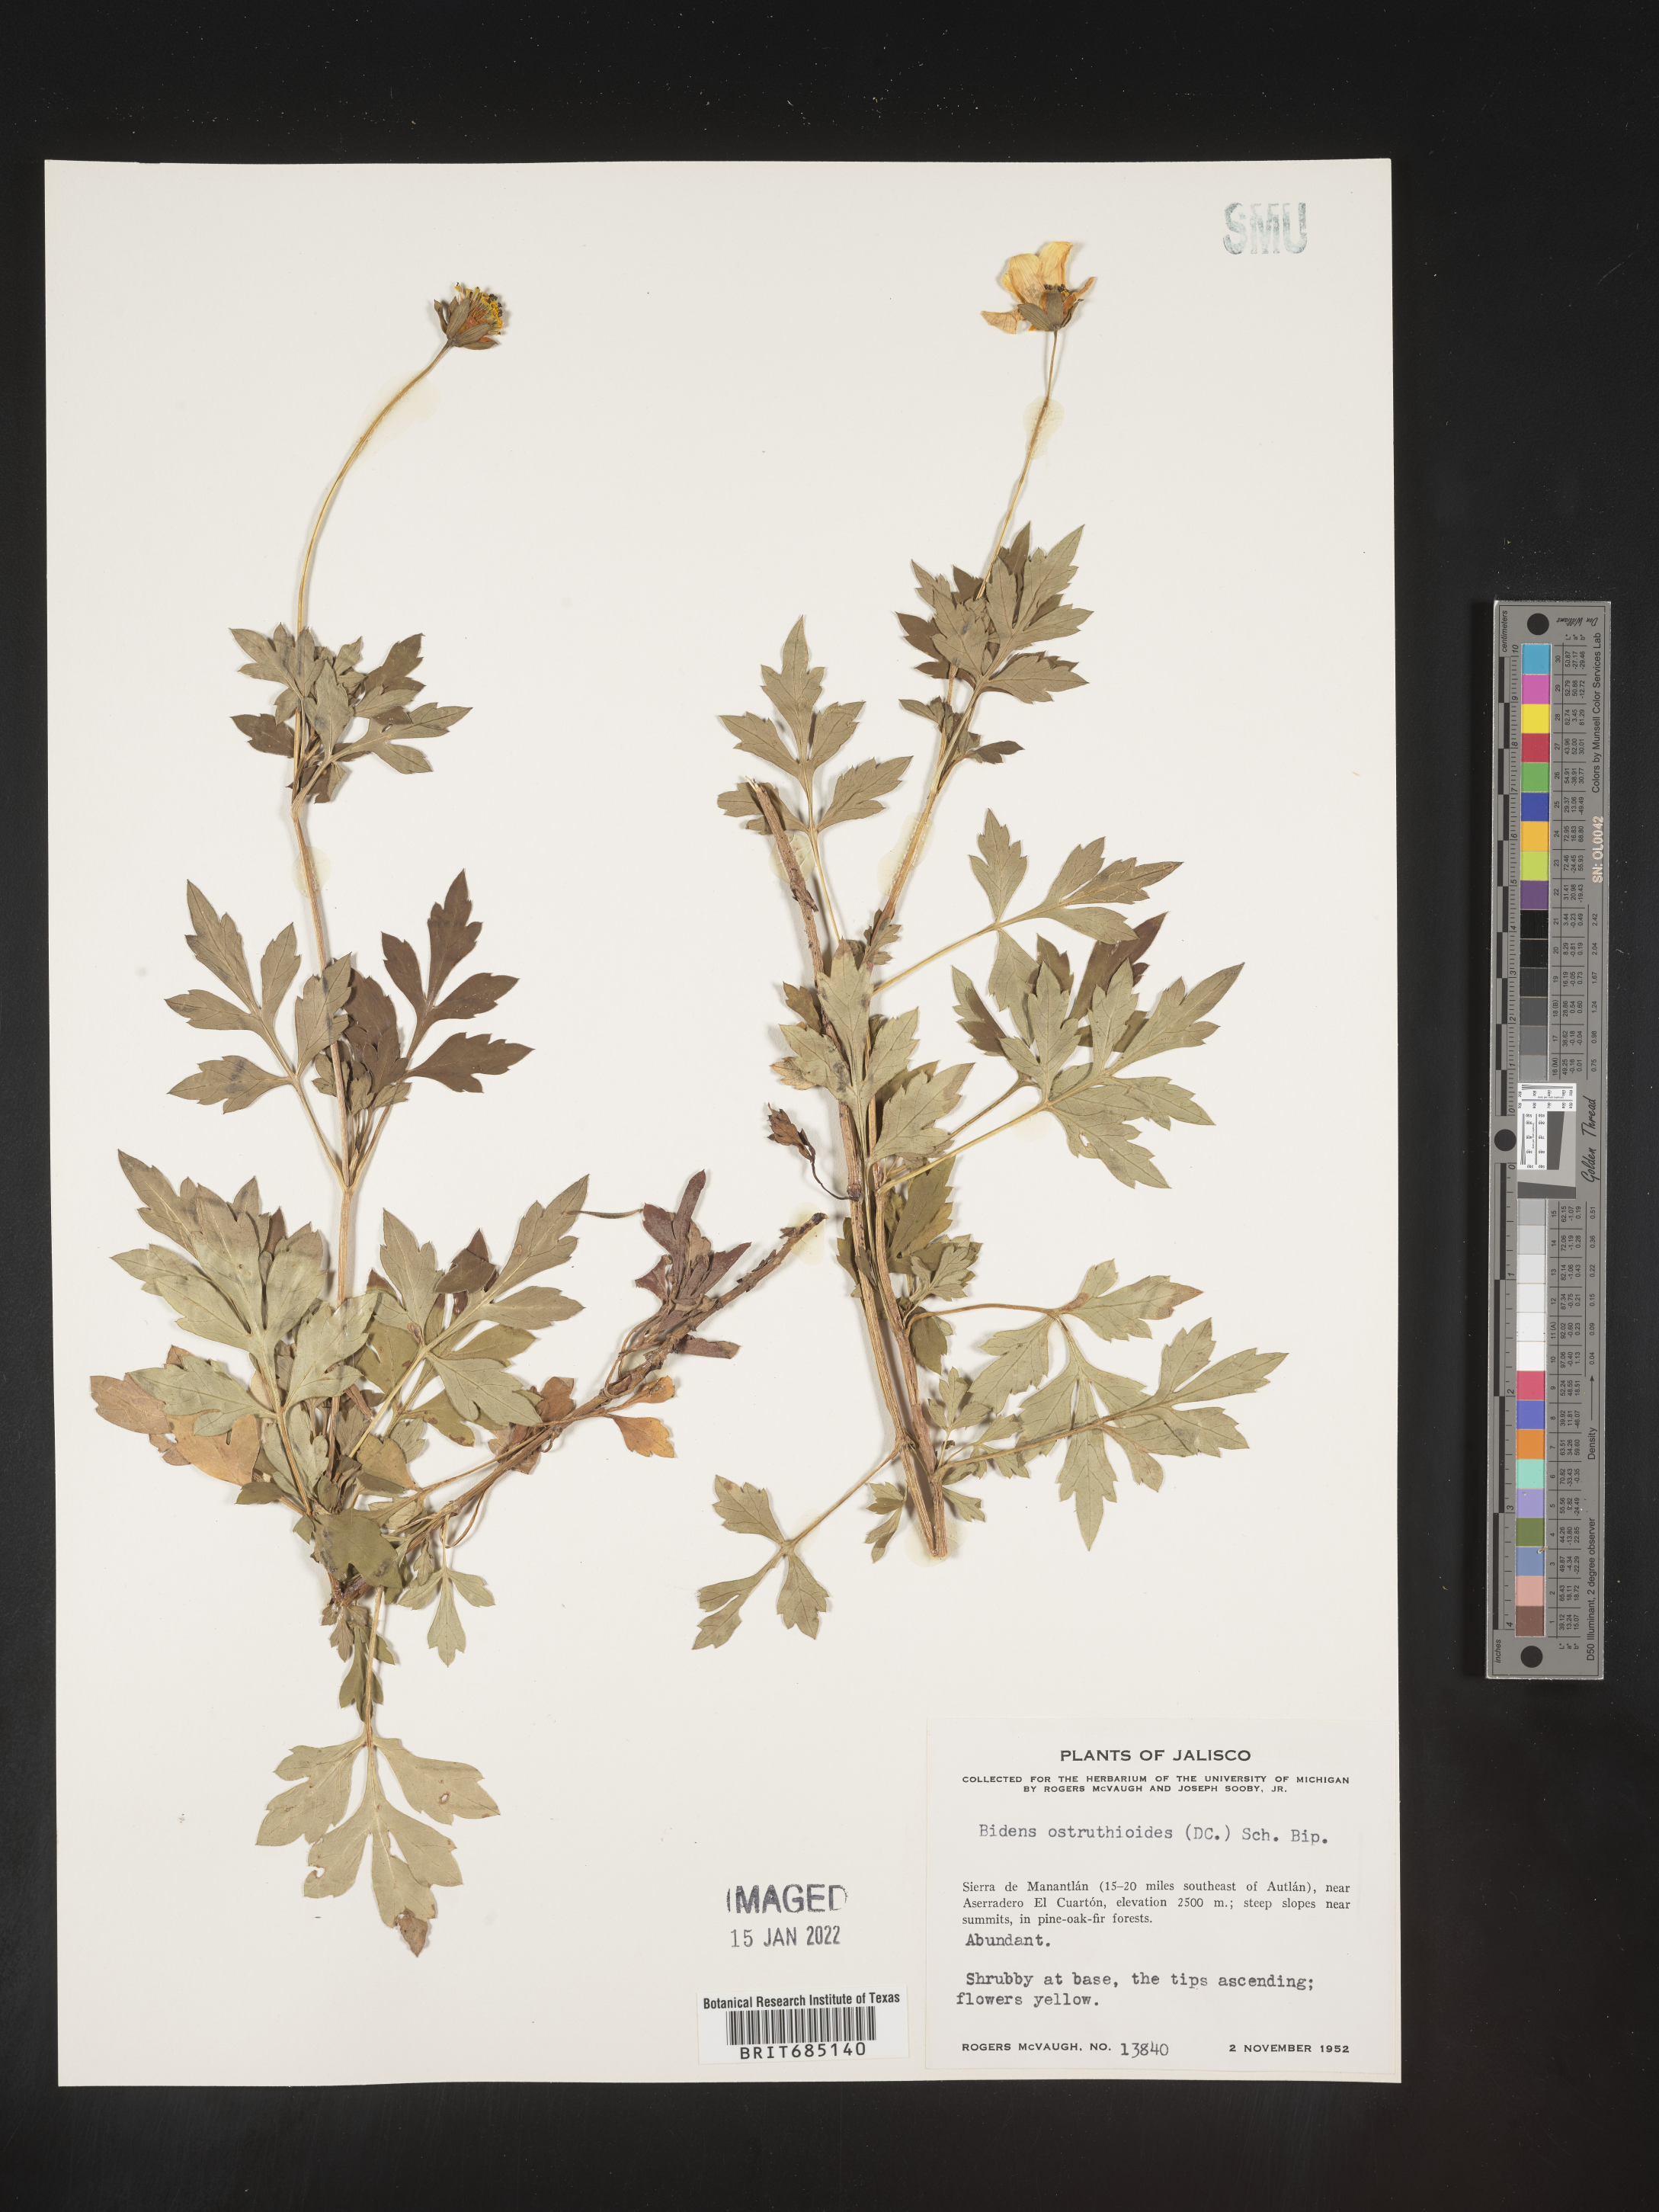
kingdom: Plantae
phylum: Tracheophyta
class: Magnoliopsida
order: Asterales
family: Asteraceae
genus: Bidens
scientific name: Bidens
